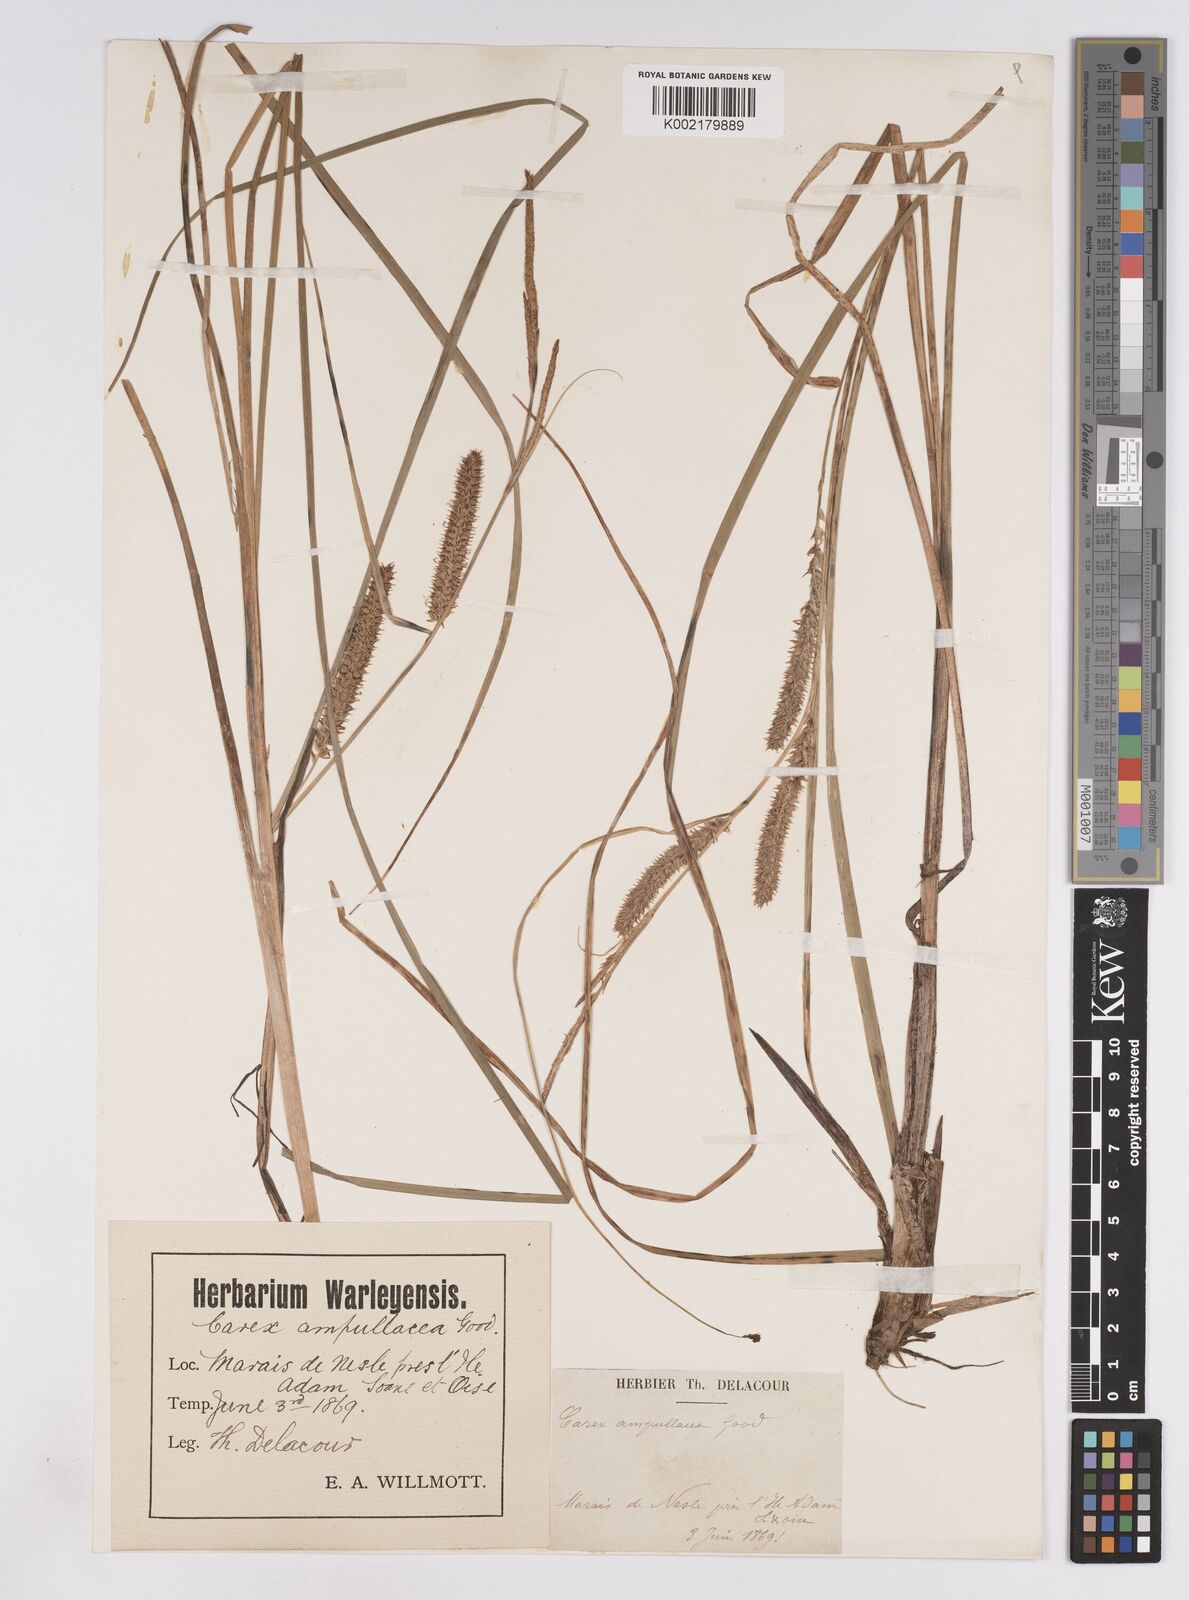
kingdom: Plantae
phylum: Tracheophyta
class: Liliopsida
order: Poales
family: Cyperaceae
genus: Carex
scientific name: Carex rostrata
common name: Bottle sedge
